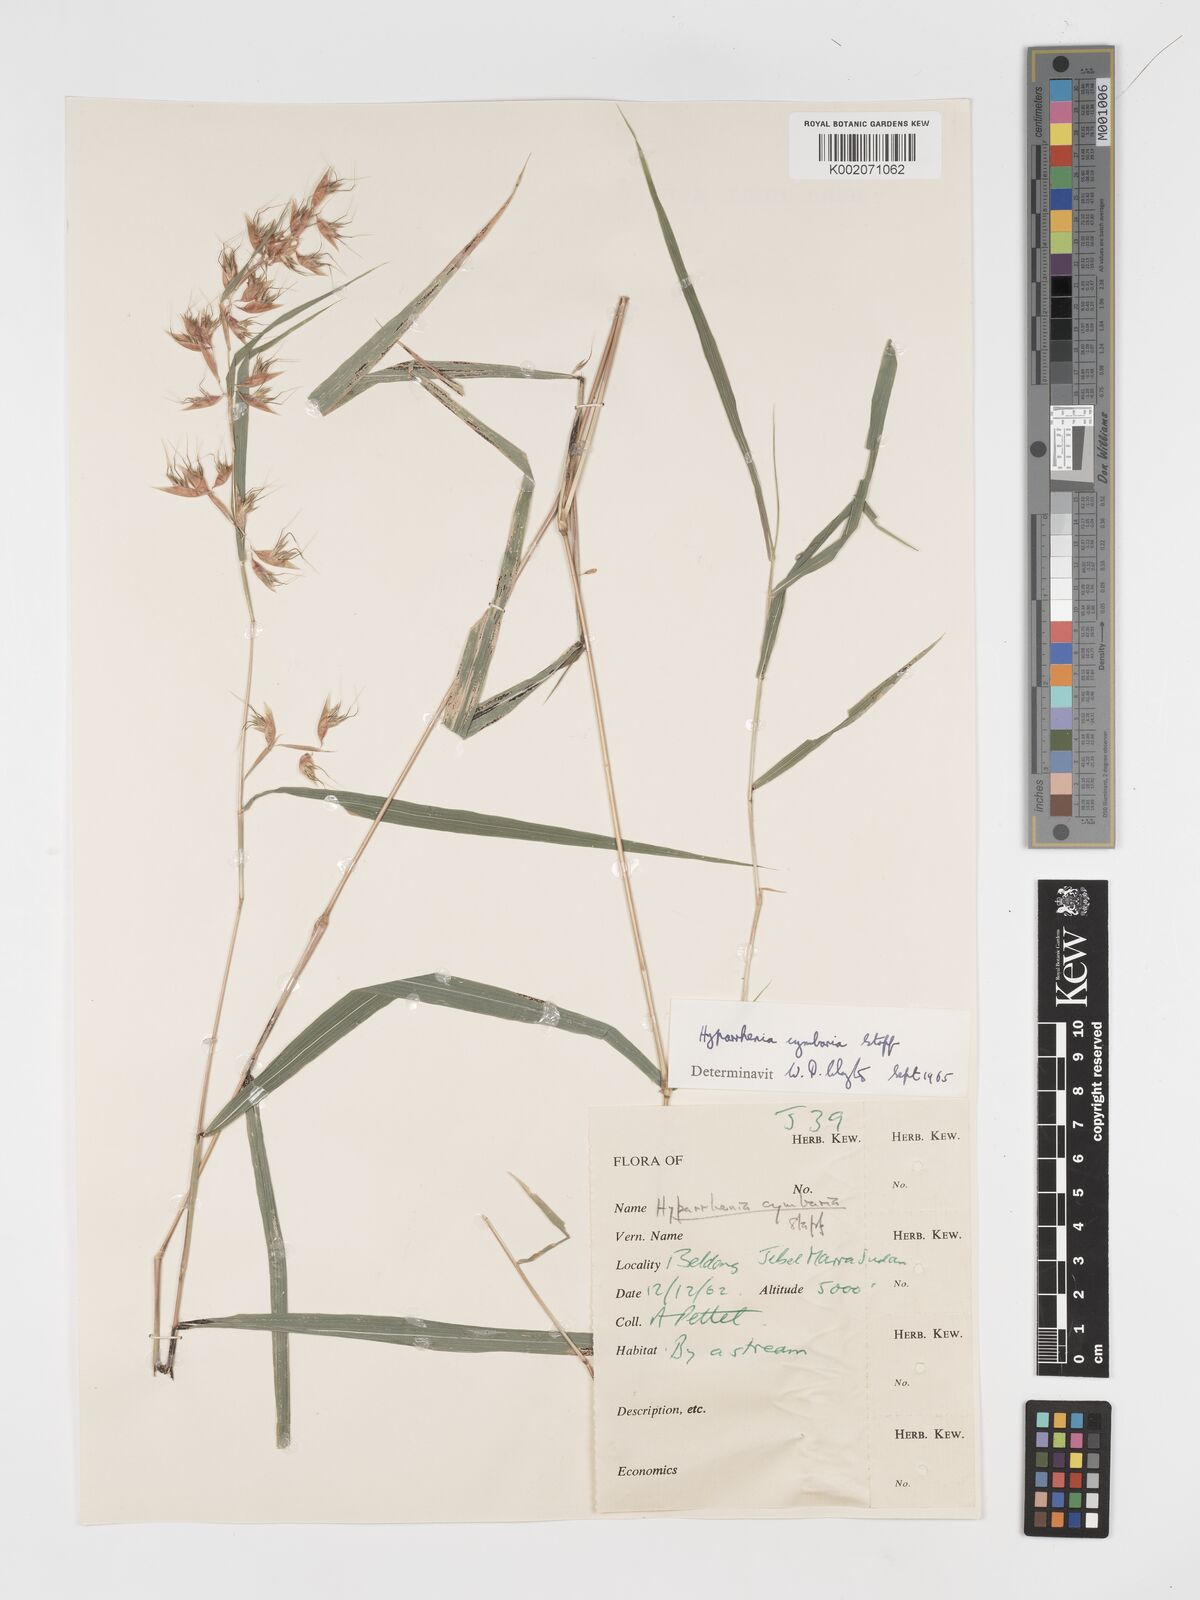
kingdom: Plantae
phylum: Tracheophyta
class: Liliopsida
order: Poales
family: Poaceae
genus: Hyparrhenia
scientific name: Hyparrhenia cymbaria
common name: Boat thatching grass
